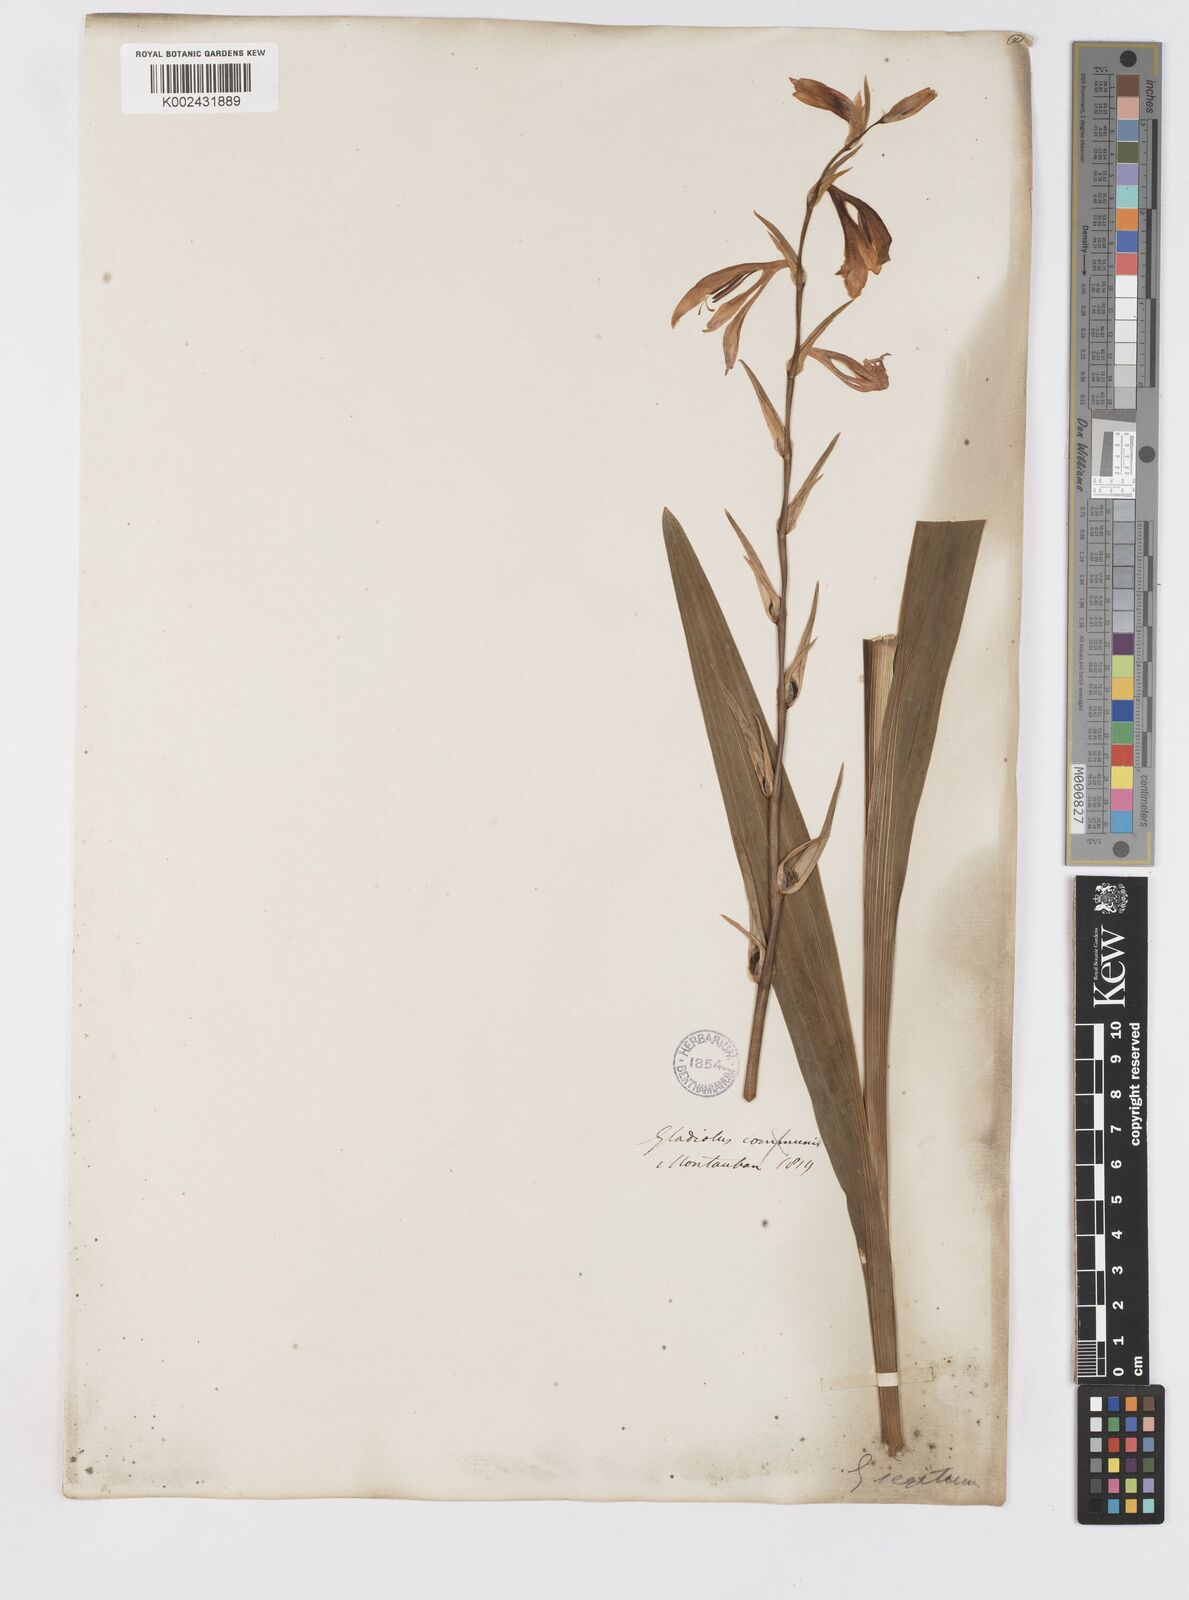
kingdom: Plantae
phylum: Tracheophyta
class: Liliopsida
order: Asparagales
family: Iridaceae
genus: Gladiolus
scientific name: Gladiolus italicus
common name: Field gladiolus
